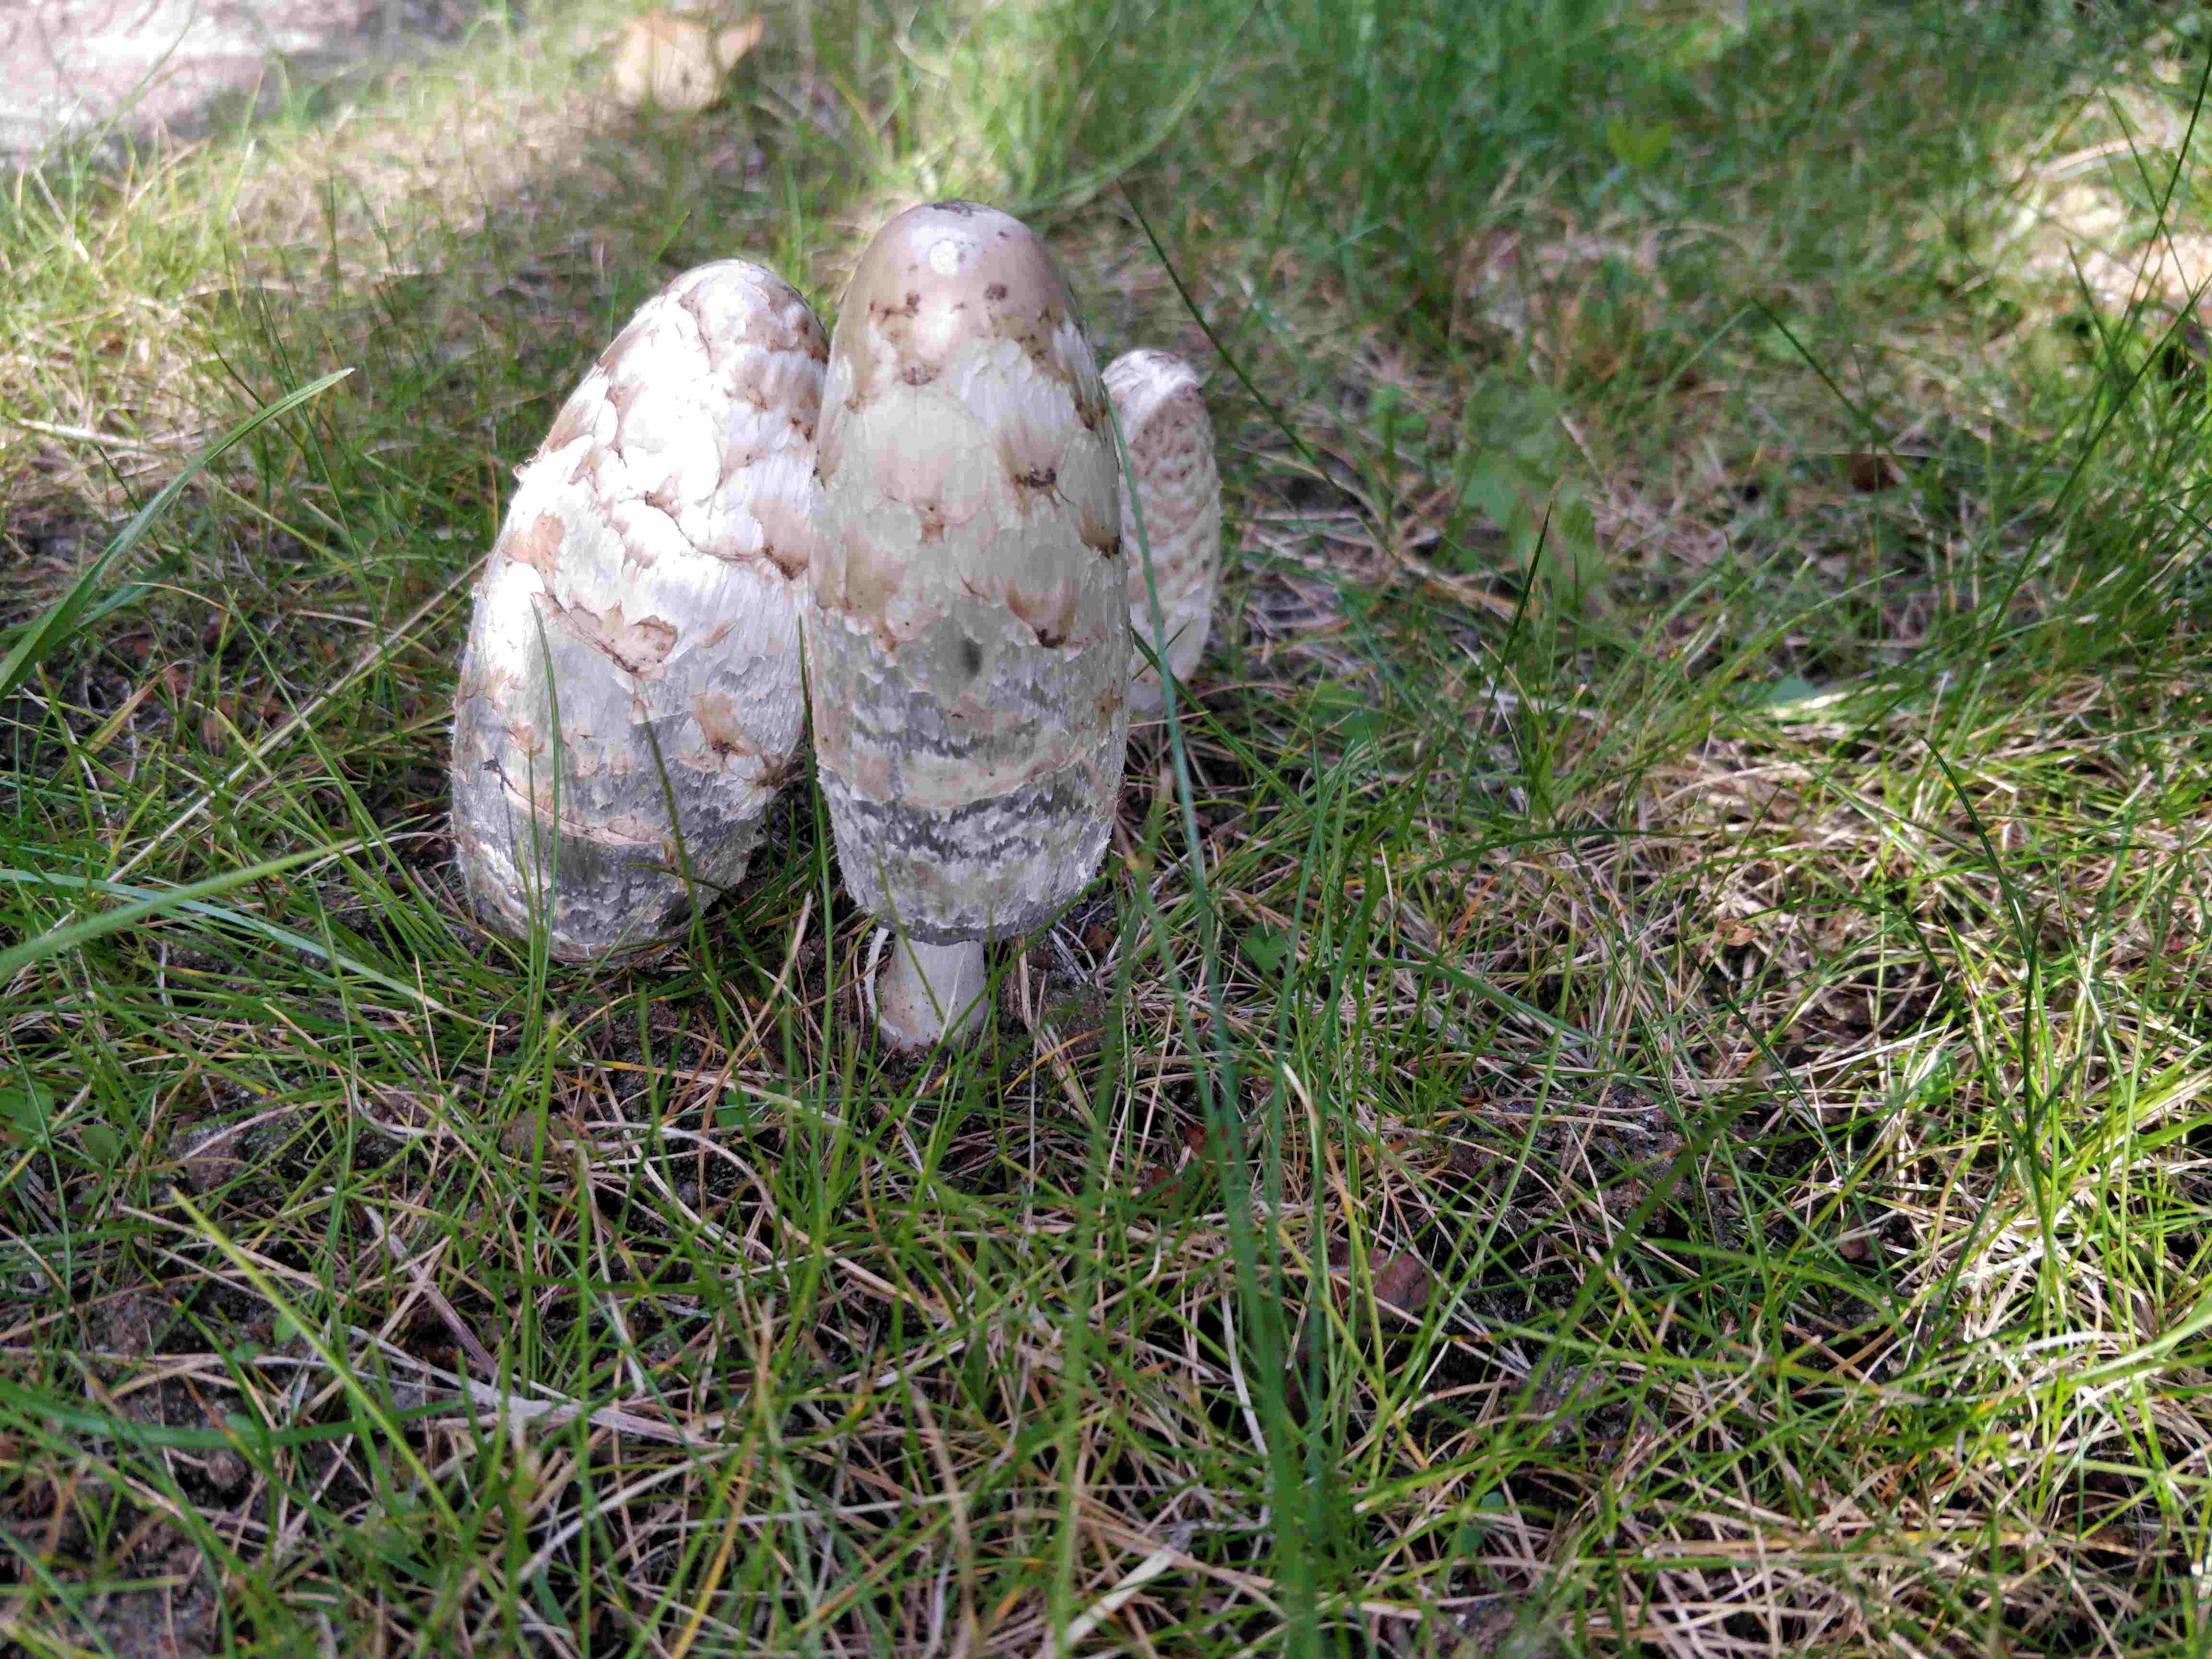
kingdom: Fungi
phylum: Basidiomycota
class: Agaricomycetes
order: Agaricales
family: Agaricaceae
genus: Coprinus
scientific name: Coprinus comatus
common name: stor parykhat
